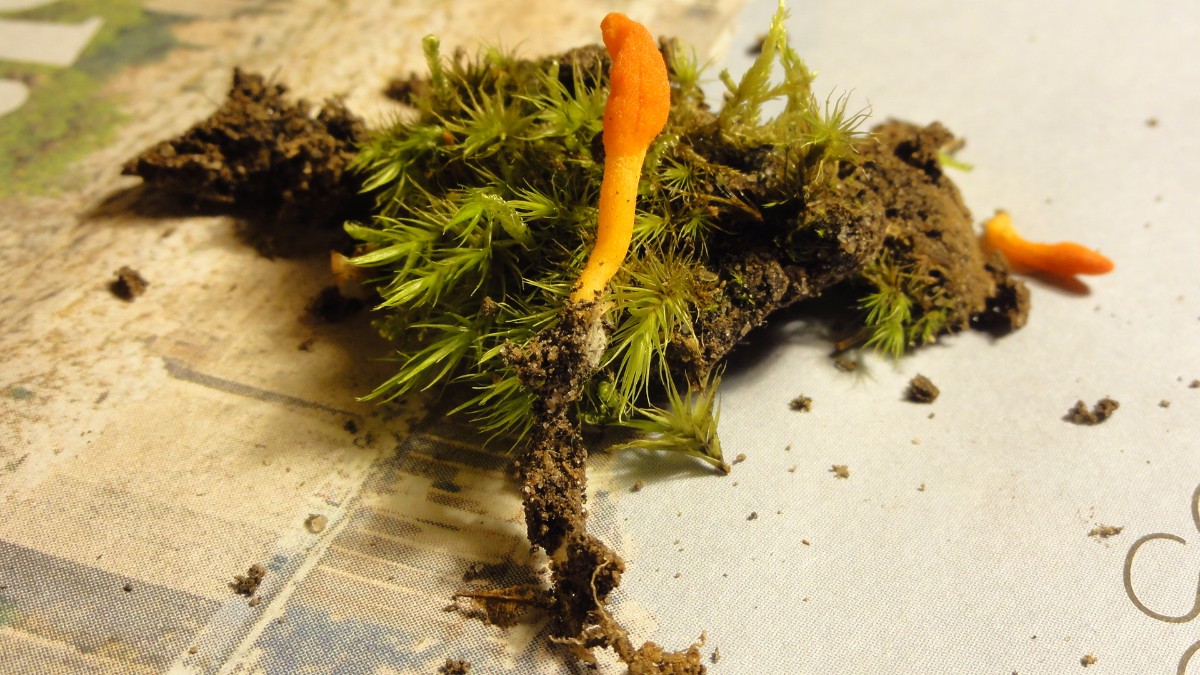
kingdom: Fungi
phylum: Ascomycota
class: Sordariomycetes
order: Hypocreales
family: Cordycipitaceae
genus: Cordyceps
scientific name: Cordyceps militaris
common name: puppe-snyltekølle
